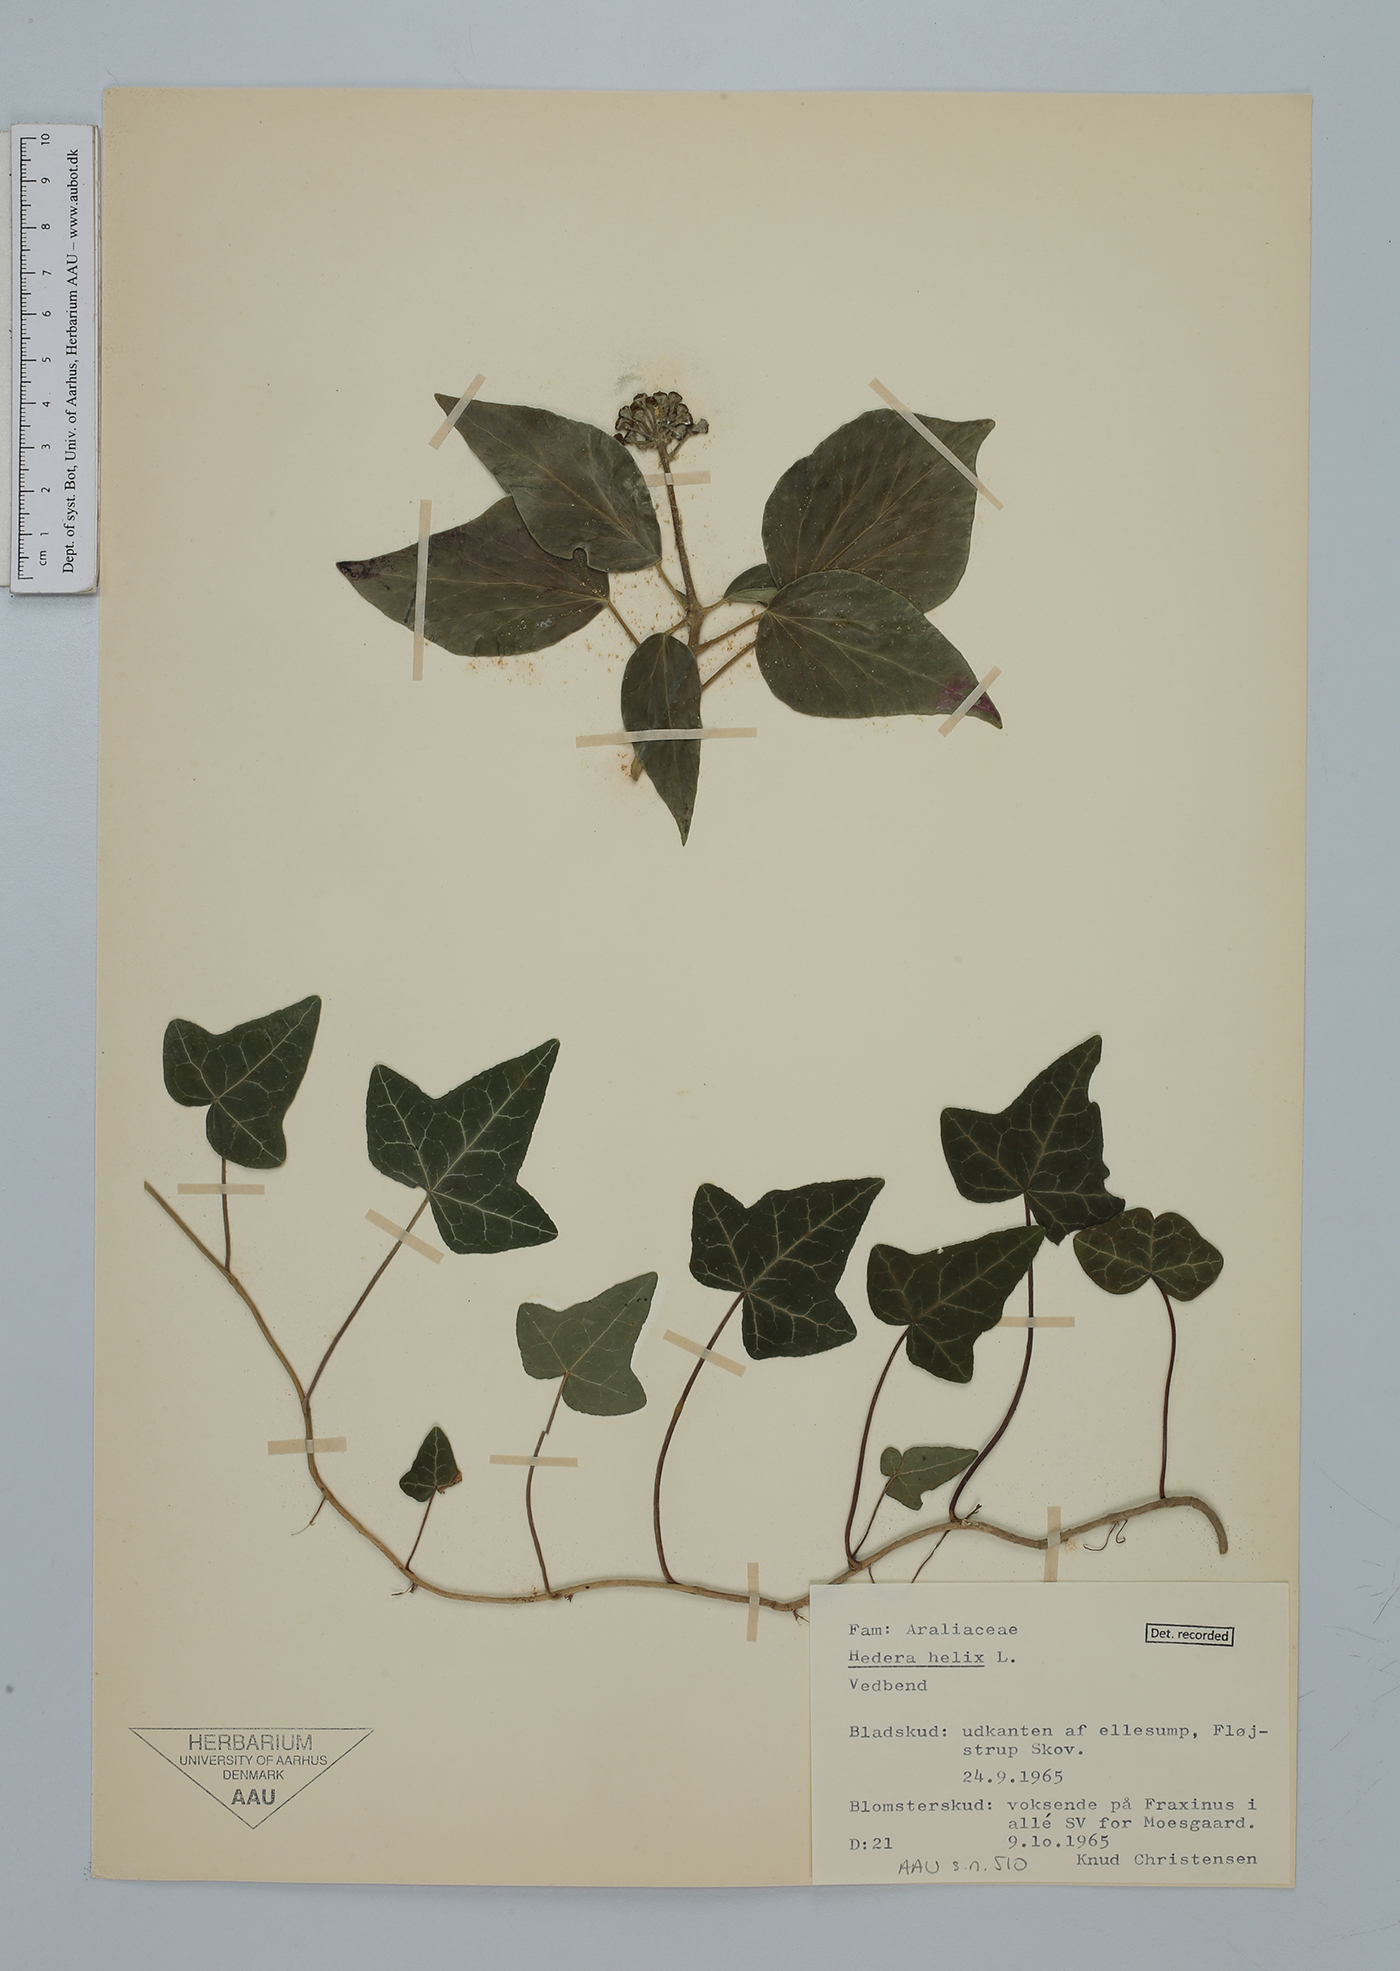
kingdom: Plantae
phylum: Tracheophyta
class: Magnoliopsida
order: Apiales
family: Araliaceae
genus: Hedera
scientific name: Hedera helix
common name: Ivy
